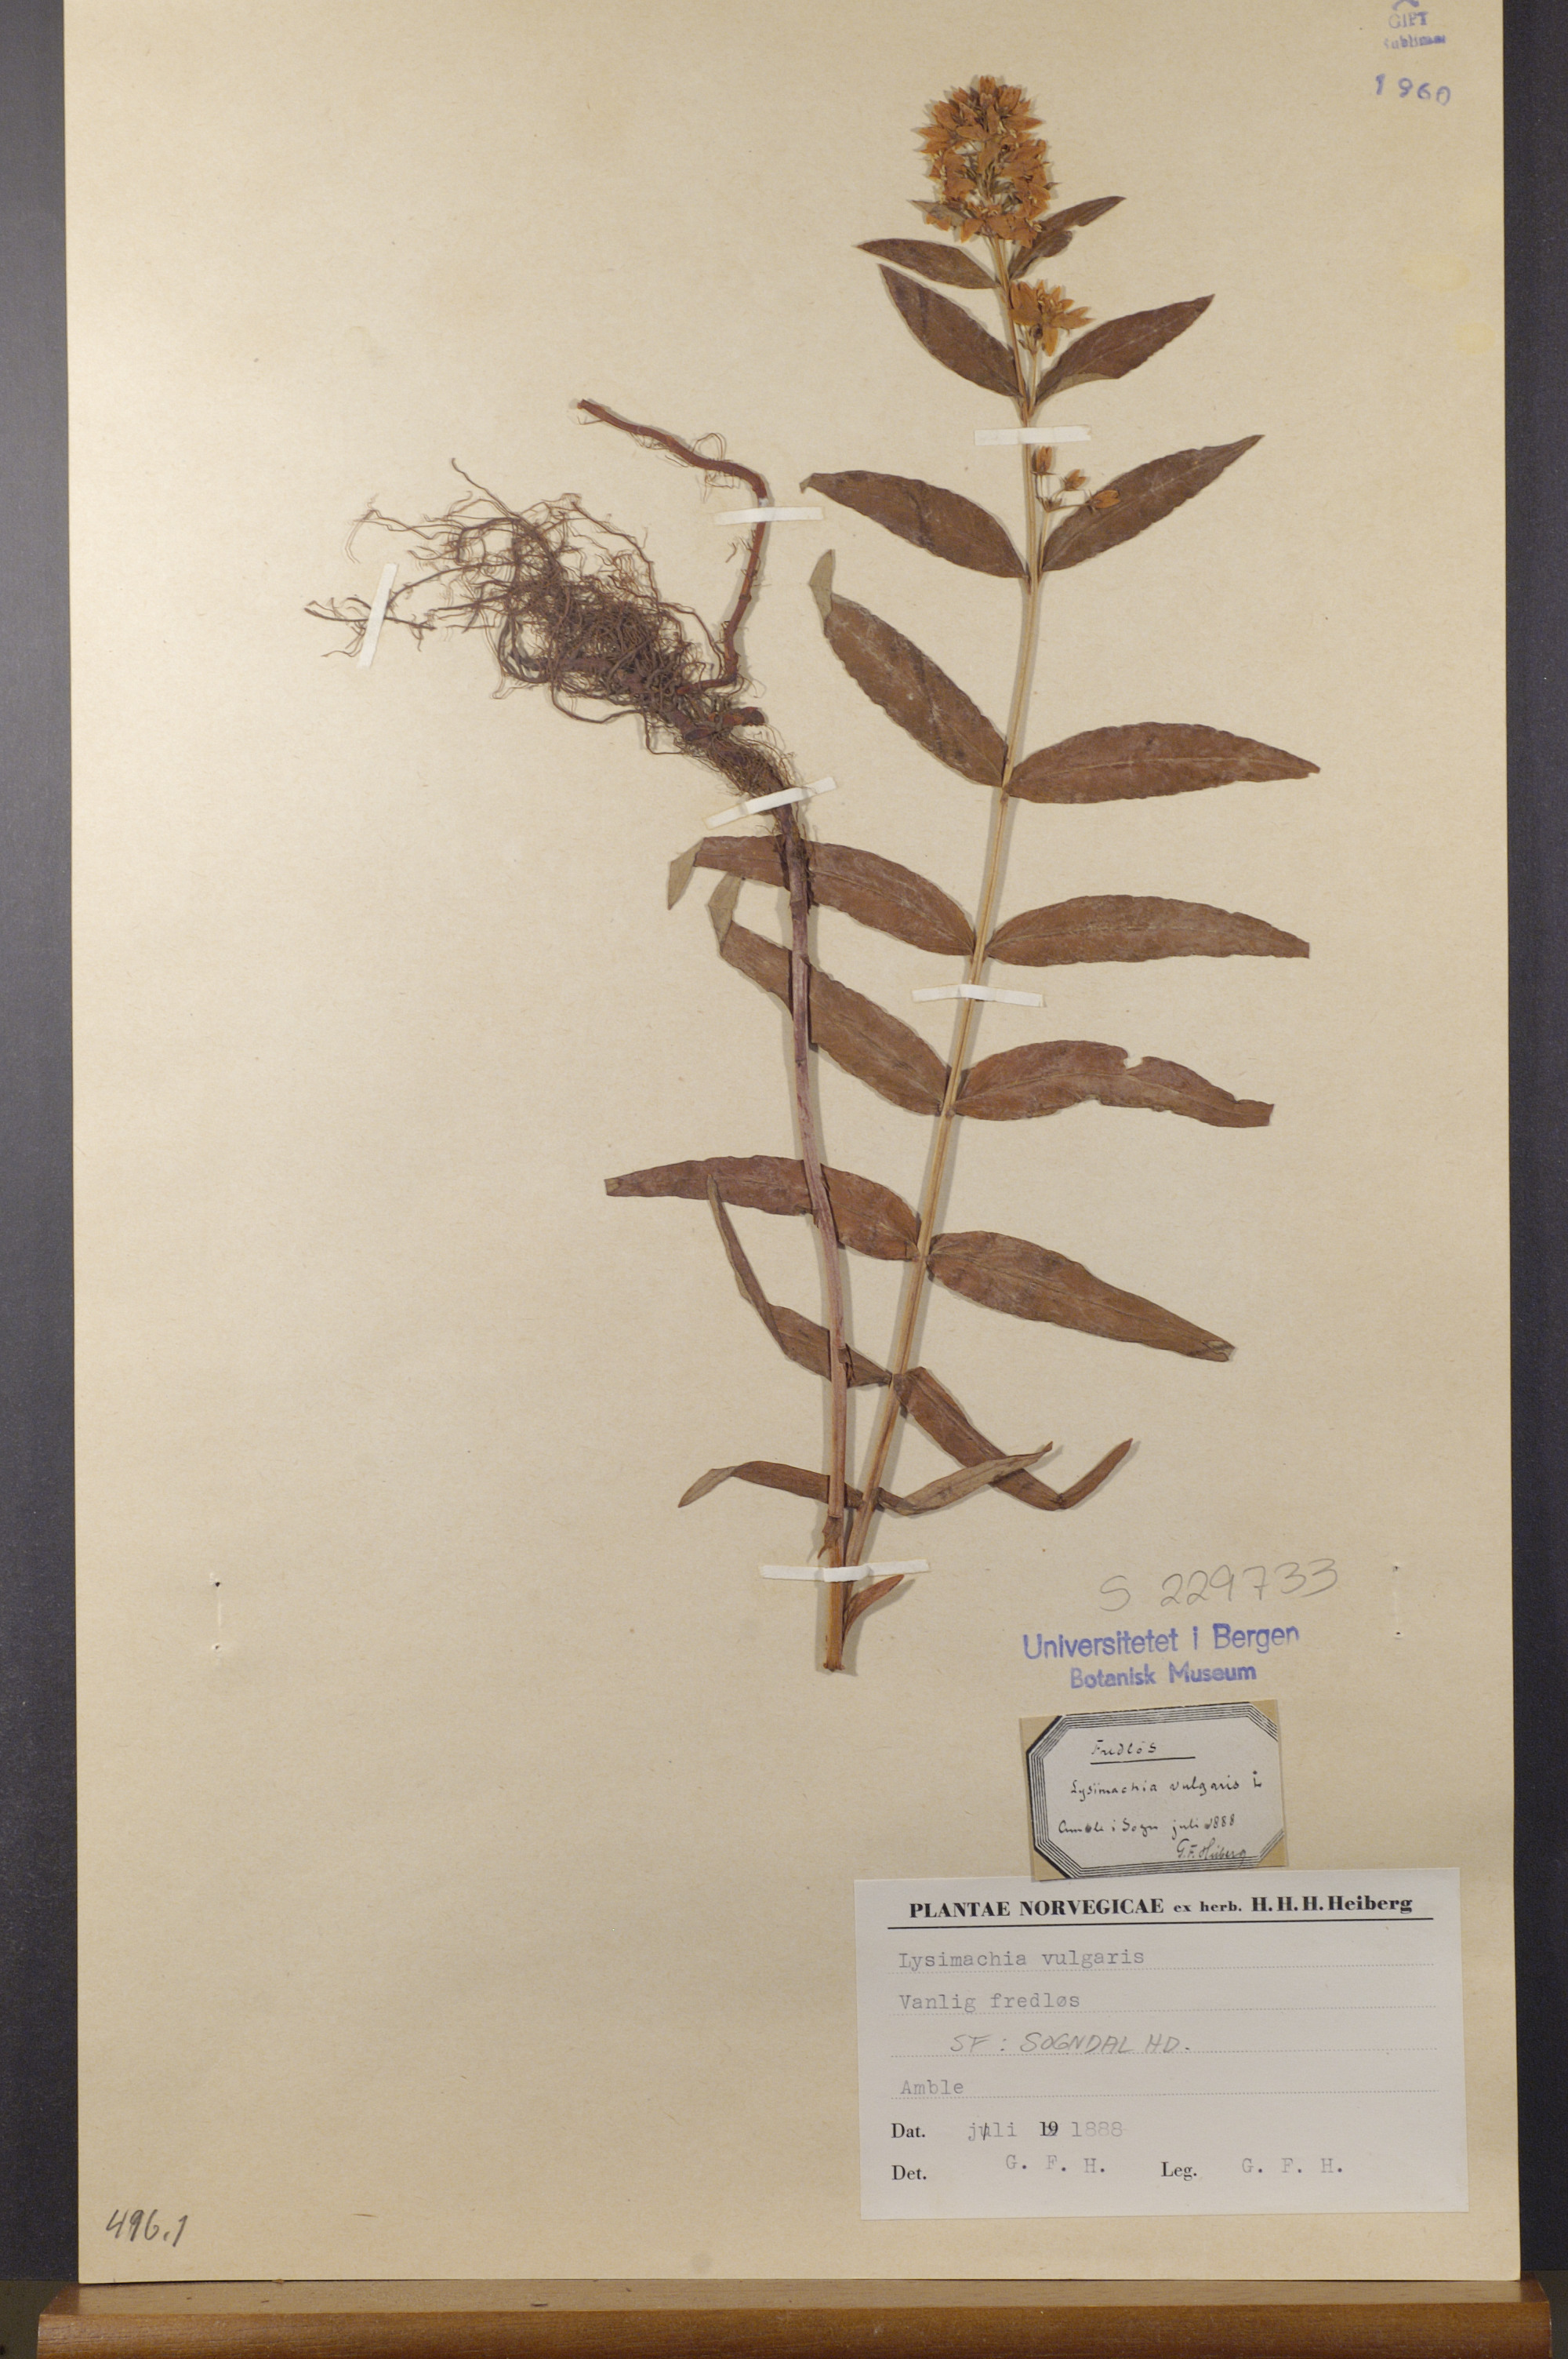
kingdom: Plantae
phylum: Tracheophyta
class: Magnoliopsida
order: Ericales
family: Primulaceae
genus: Lysimachia
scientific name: Lysimachia vulgaris
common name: Yellow loosestrife
